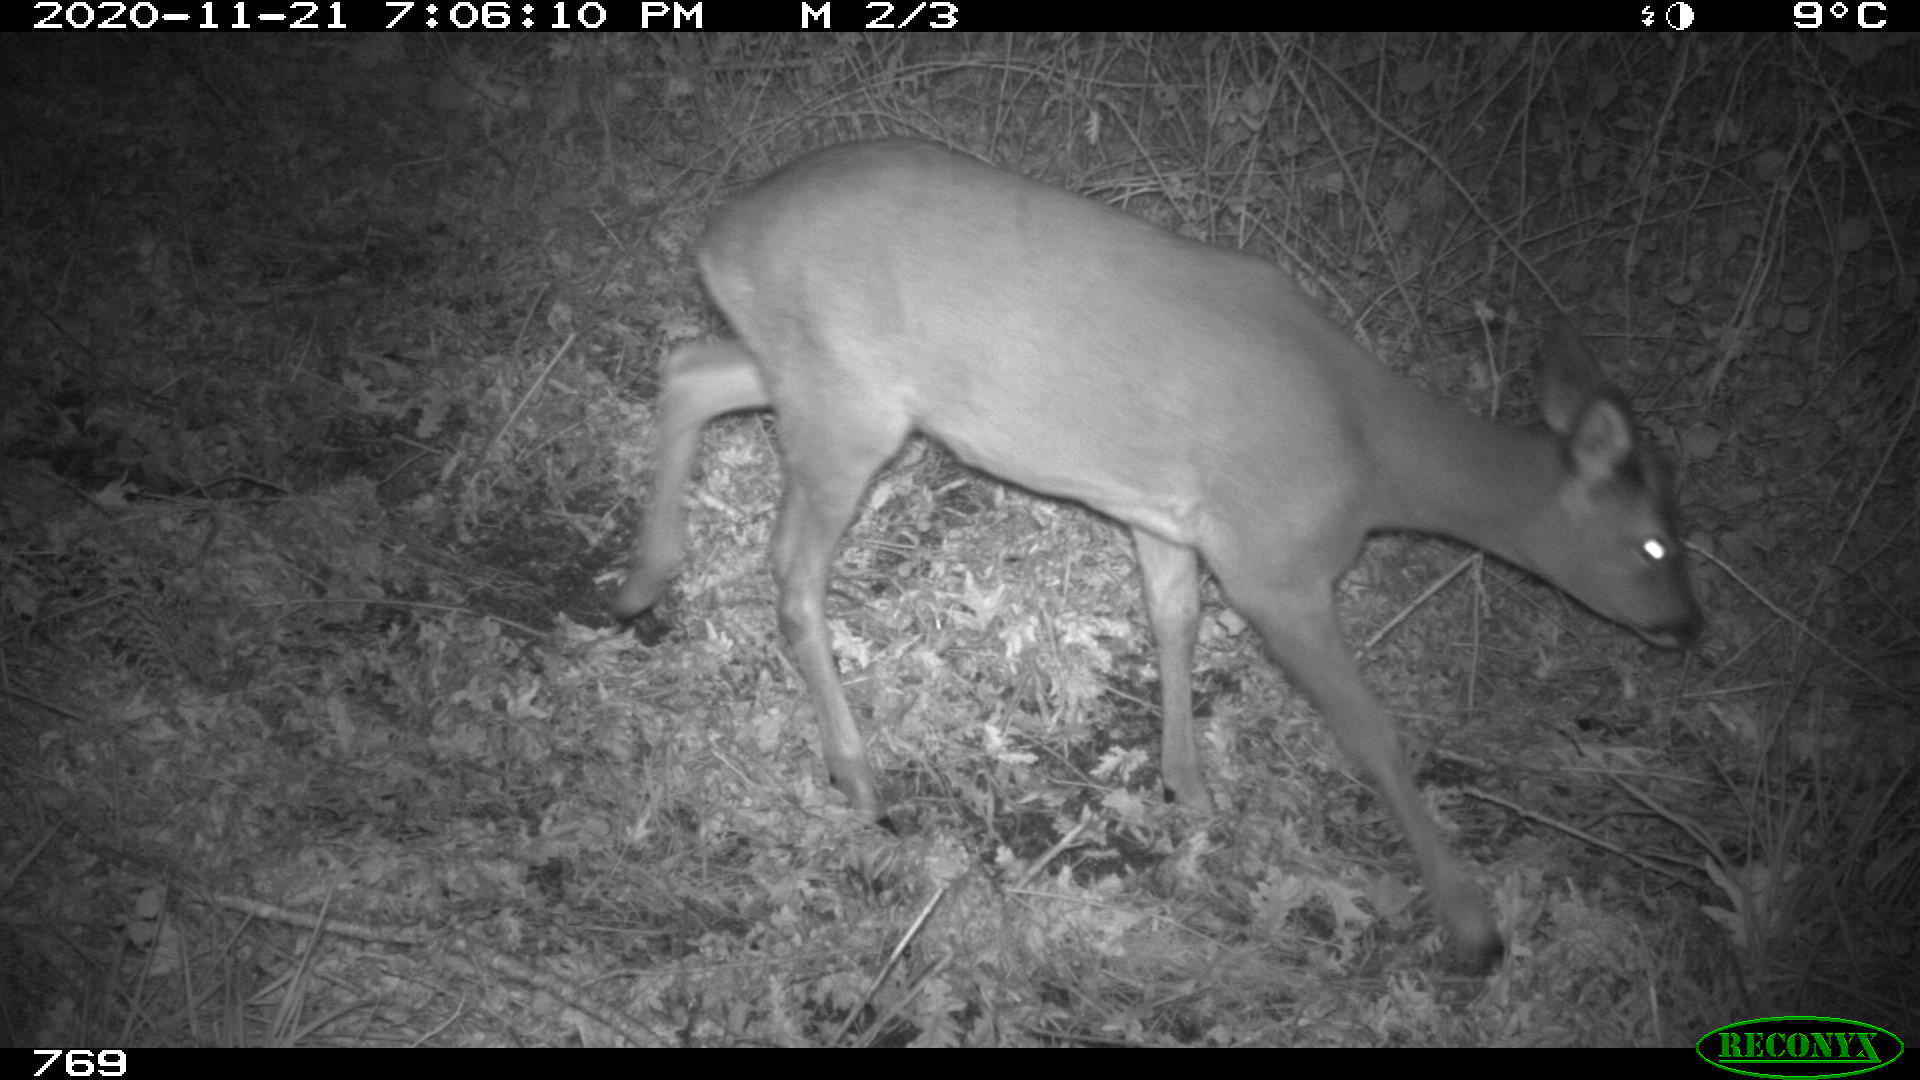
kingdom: Animalia
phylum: Chordata
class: Mammalia
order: Artiodactyla
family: Cervidae
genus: Capreolus
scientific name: Capreolus capreolus
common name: Western roe deer
